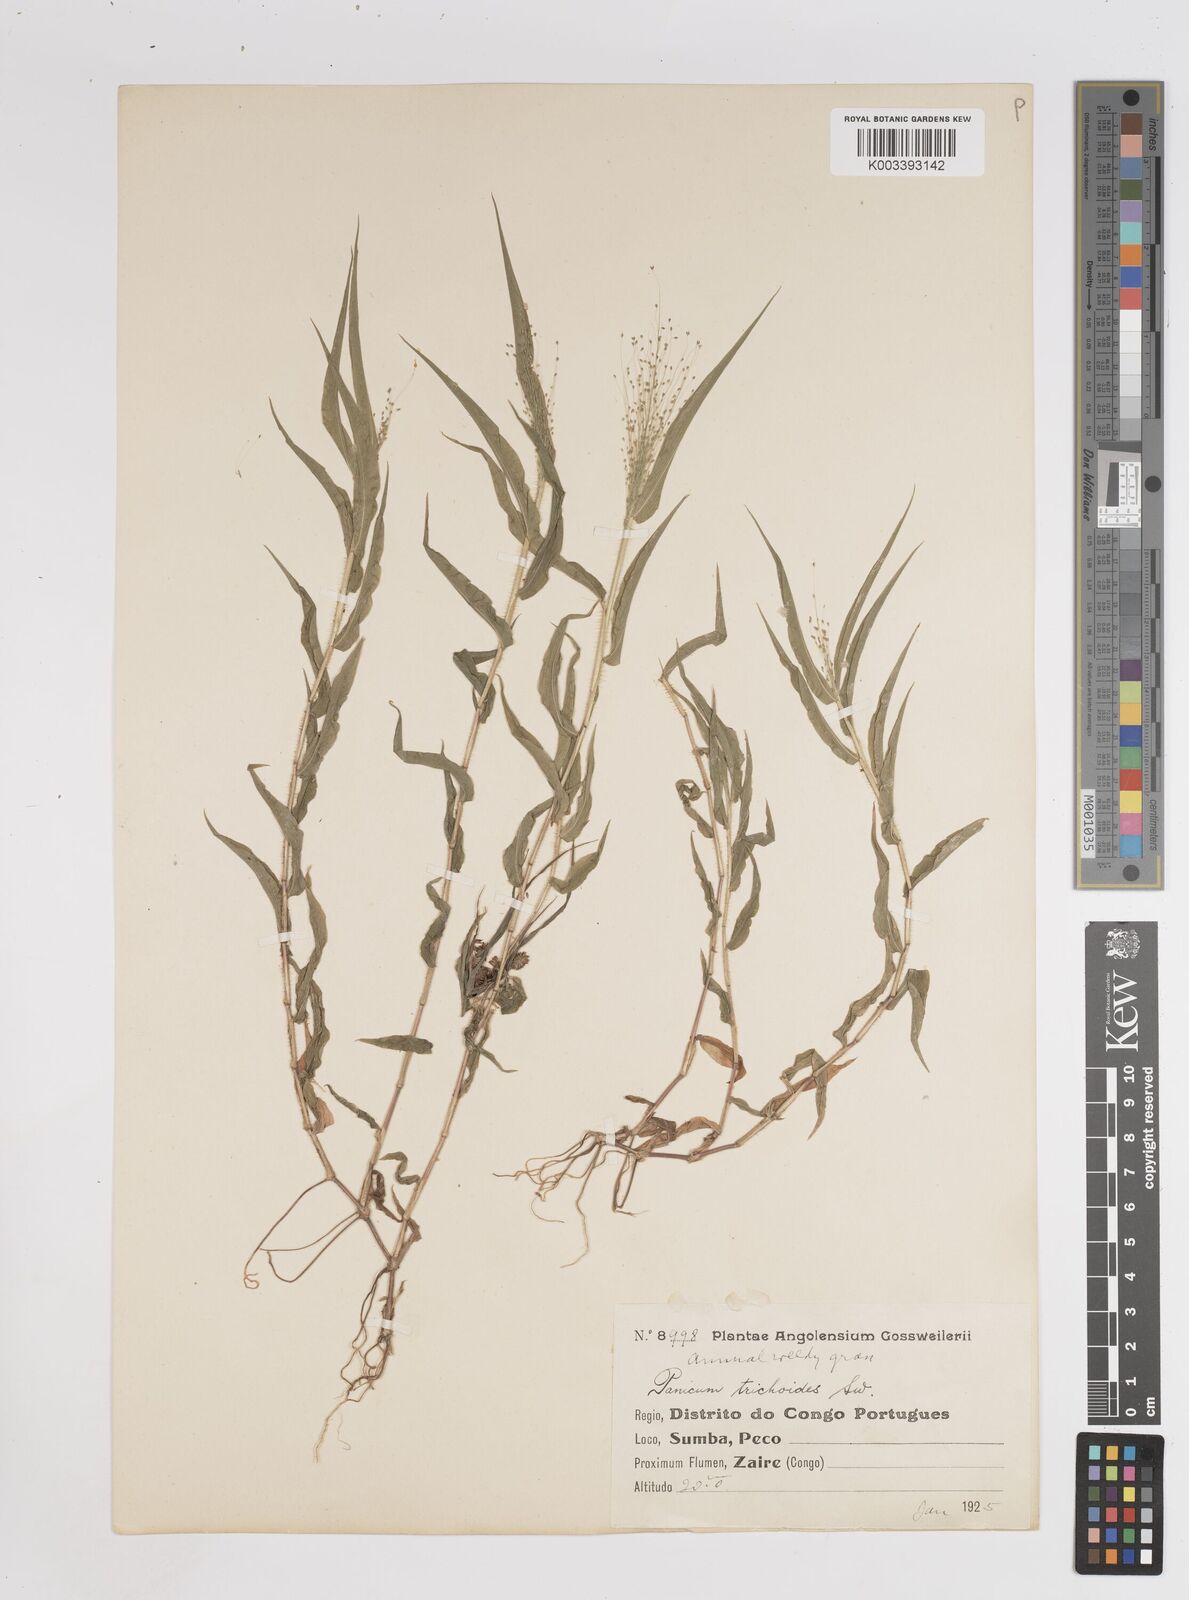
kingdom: Plantae
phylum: Tracheophyta
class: Liliopsida
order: Poales
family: Poaceae
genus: Panicum
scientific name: Panicum trichoides
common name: Tickle grass
